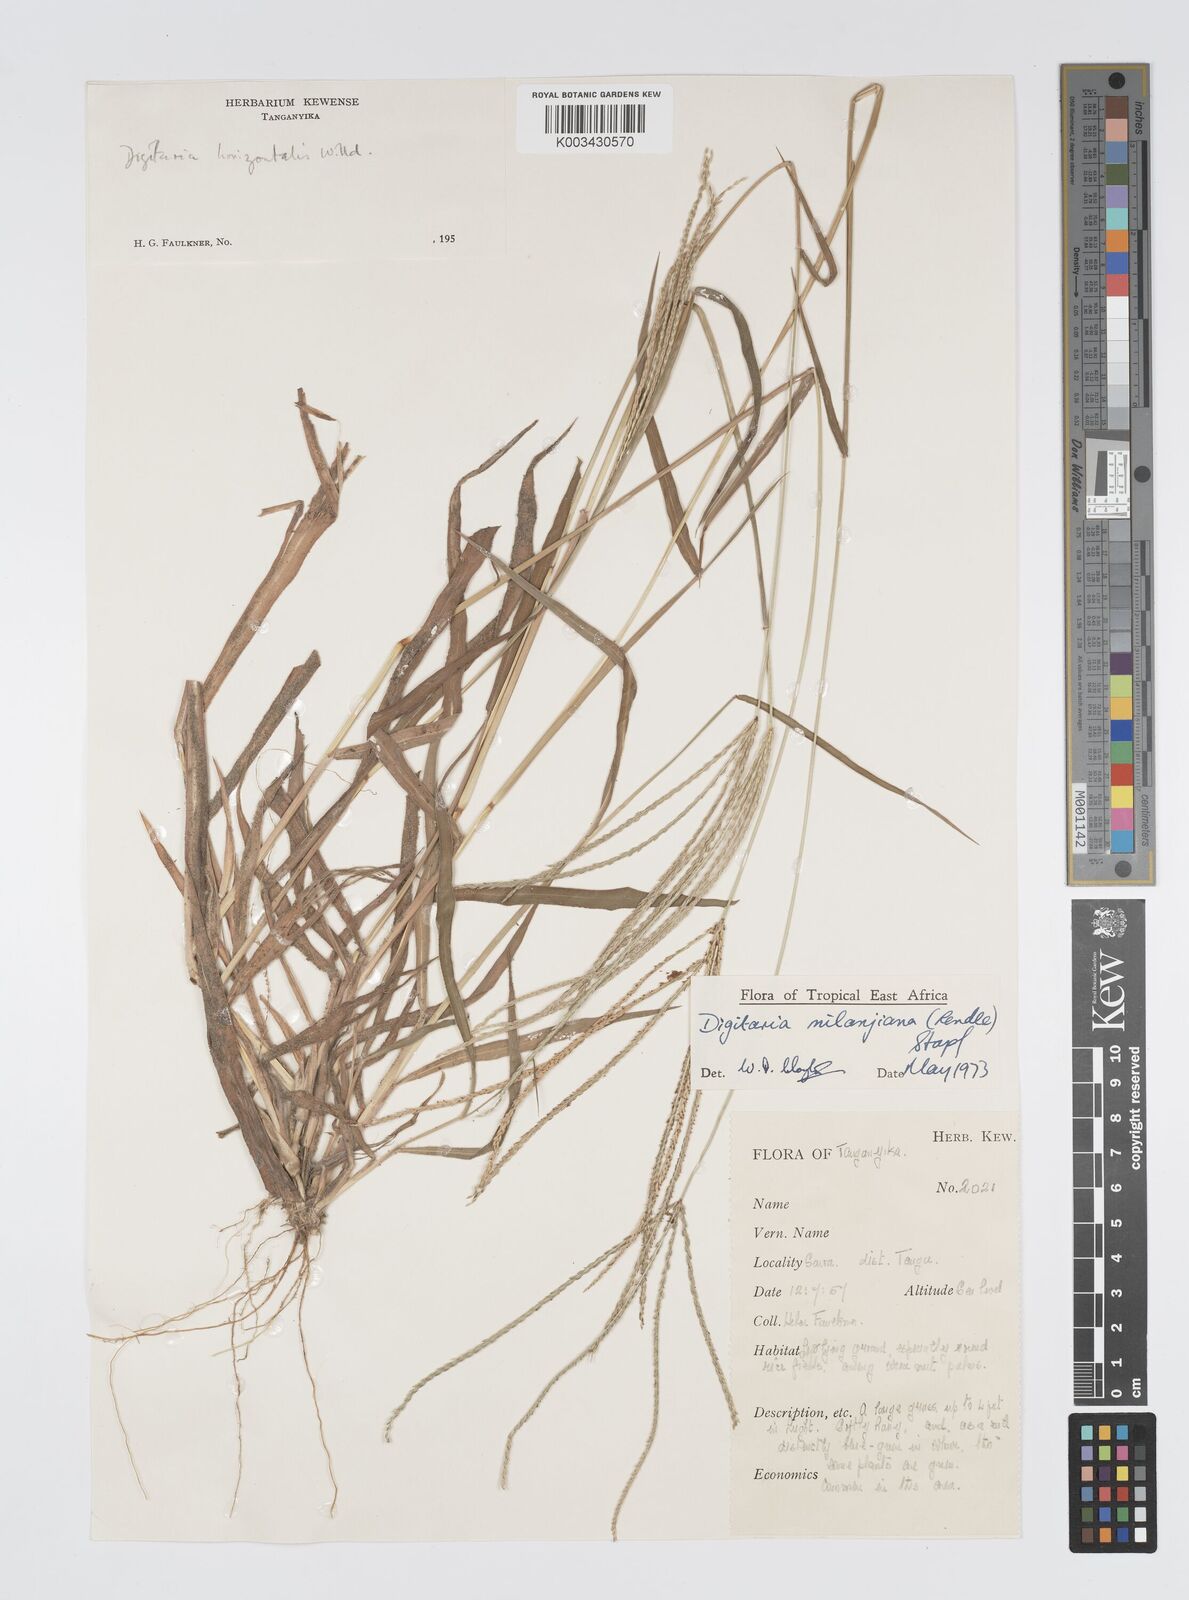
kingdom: Plantae
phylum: Tracheophyta
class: Liliopsida
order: Poales
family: Poaceae
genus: Digitaria
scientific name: Digitaria milanjiana
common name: Madagascar crabgrass
